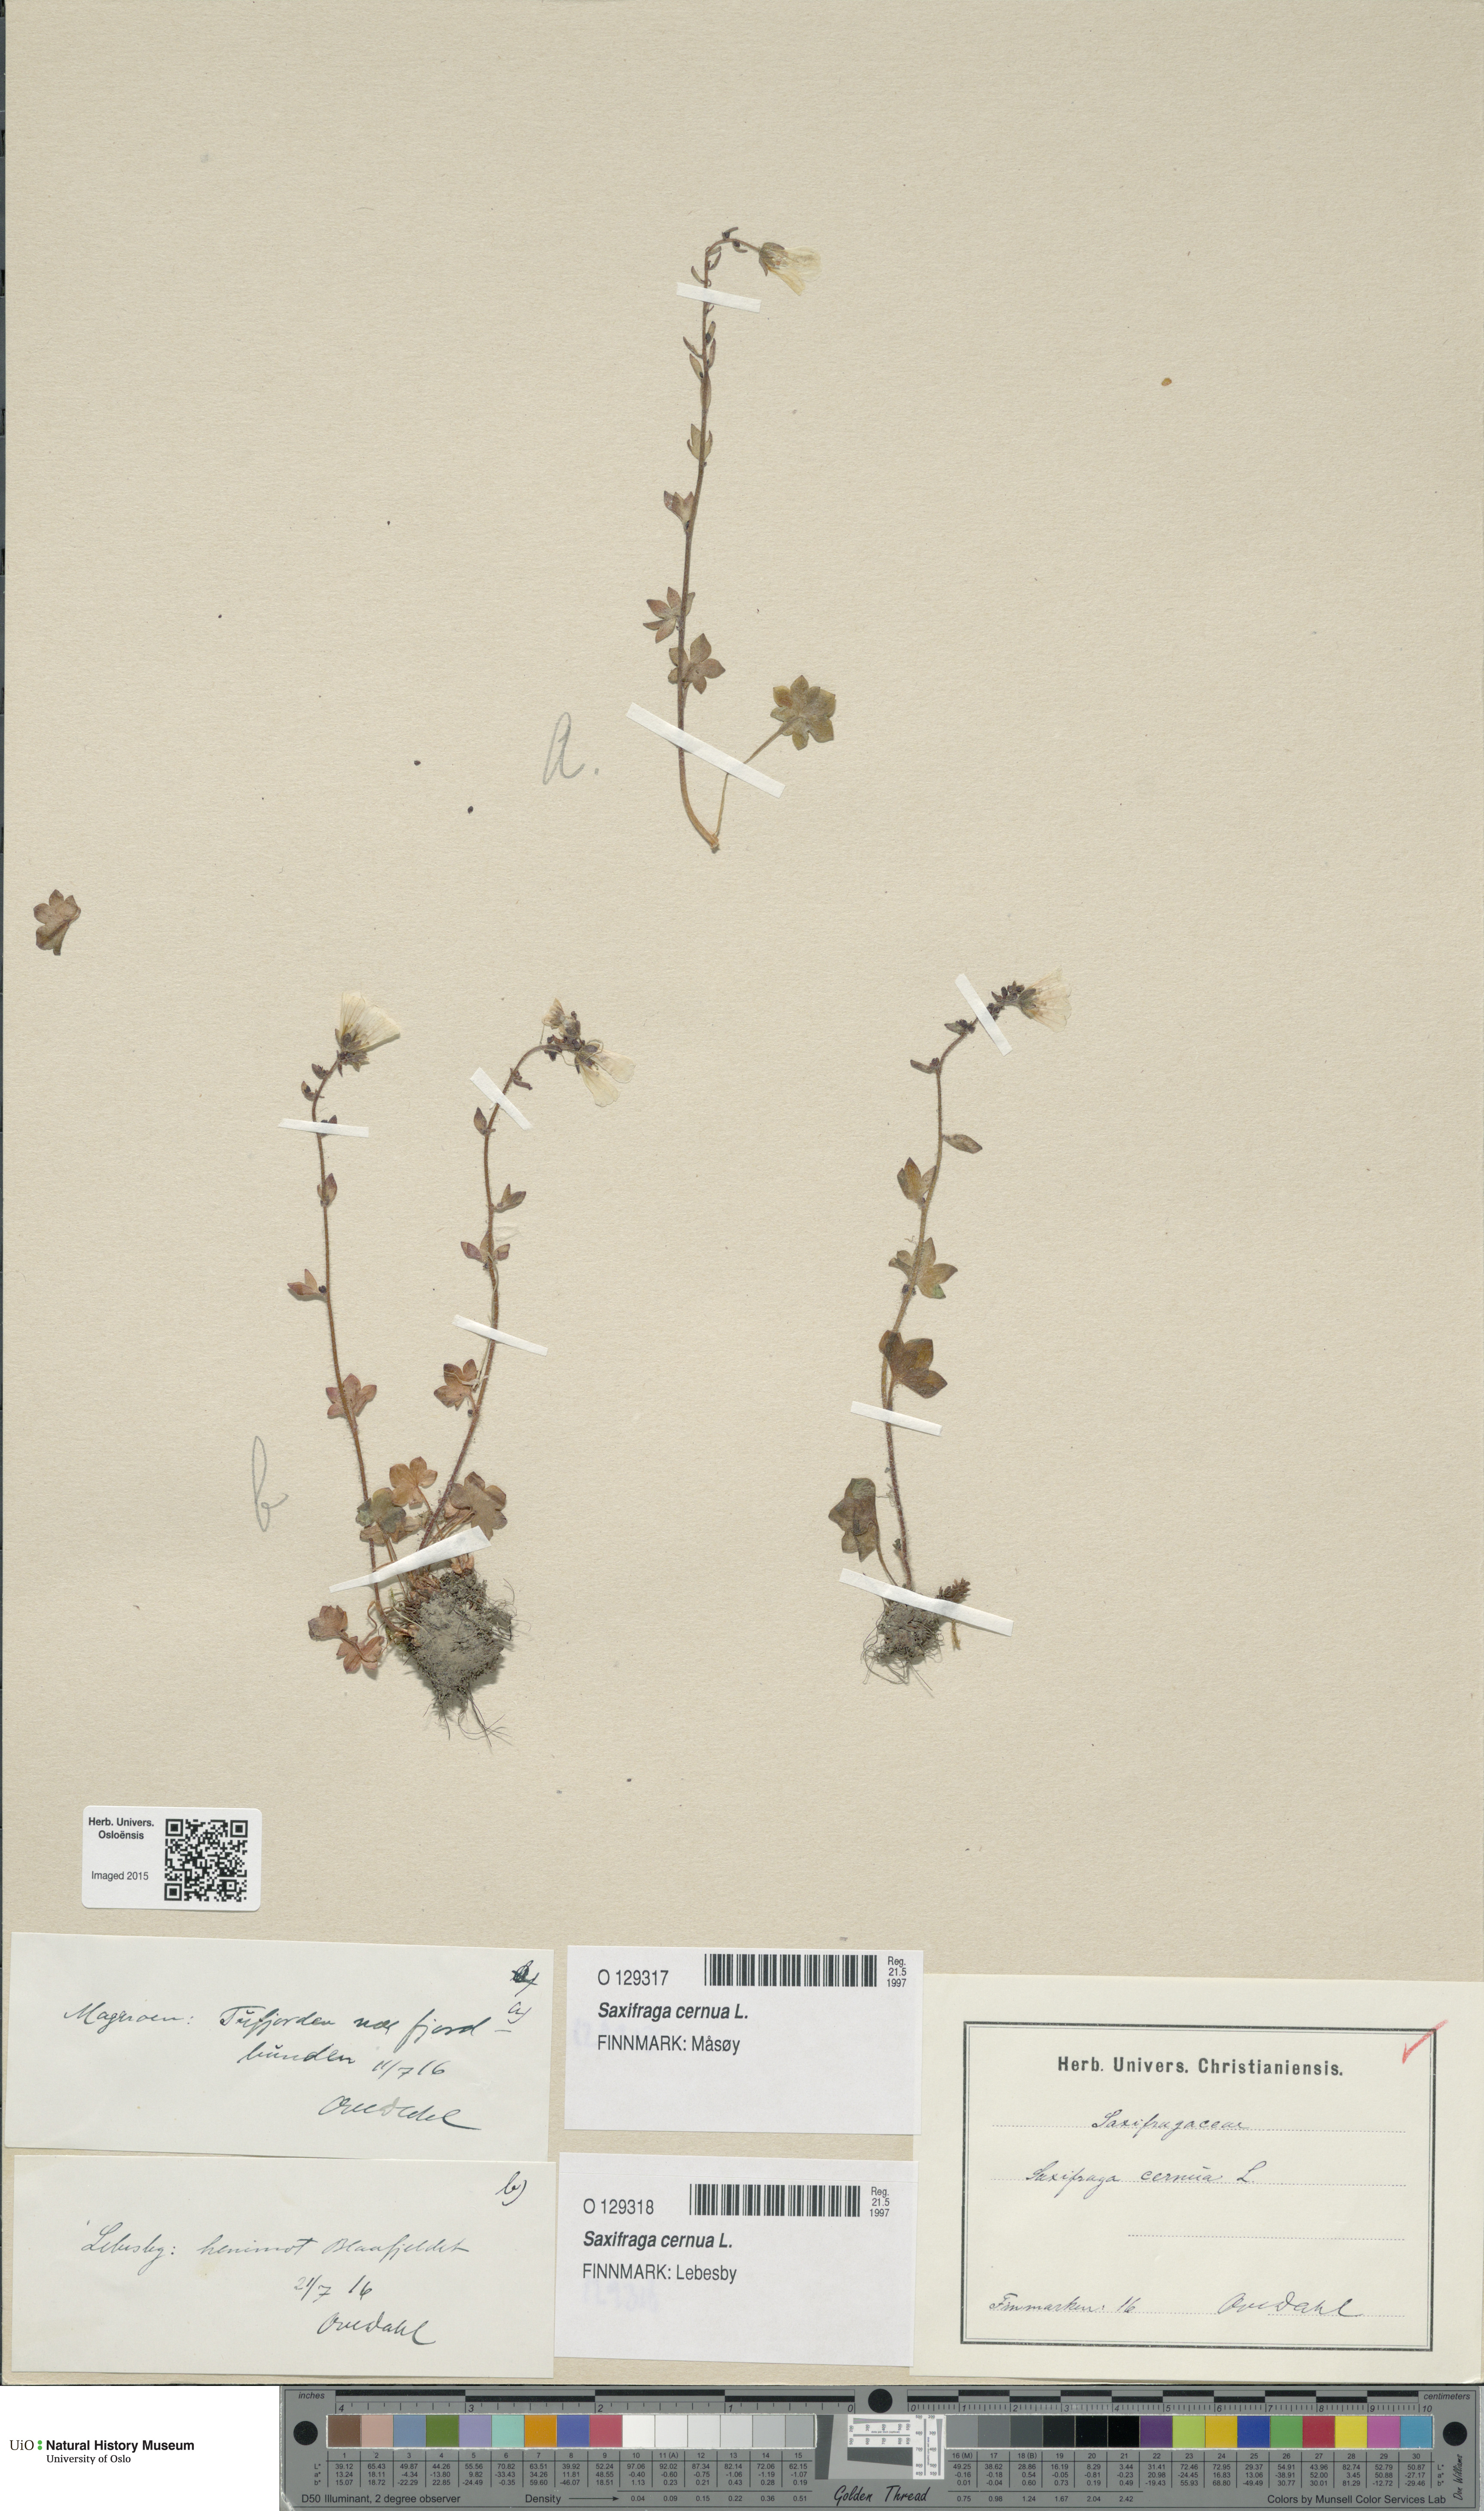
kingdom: Plantae
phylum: Tracheophyta
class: Magnoliopsida
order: Saxifragales
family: Saxifragaceae
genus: Saxifraga
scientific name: Saxifraga cernua
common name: Drooping saxifrage
